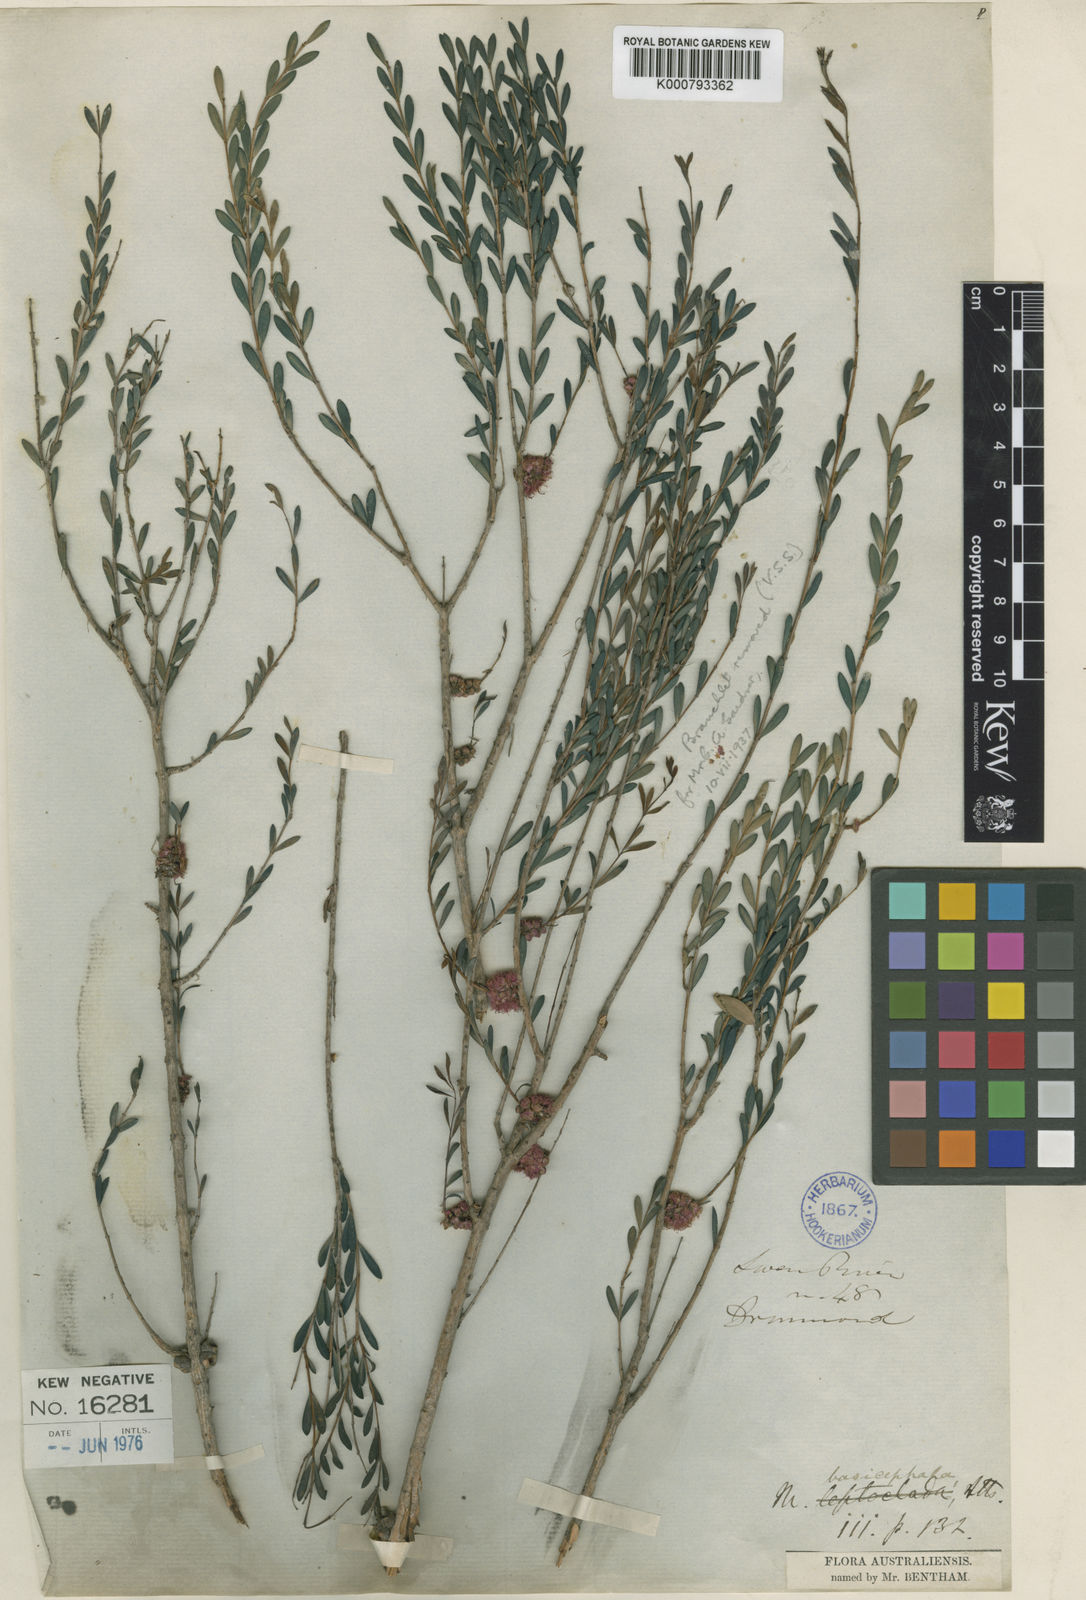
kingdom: Plantae
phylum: Tracheophyta
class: Magnoliopsida
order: Myrtales
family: Myrtaceae
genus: Melaleuca
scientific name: Melaleuca basicephala
